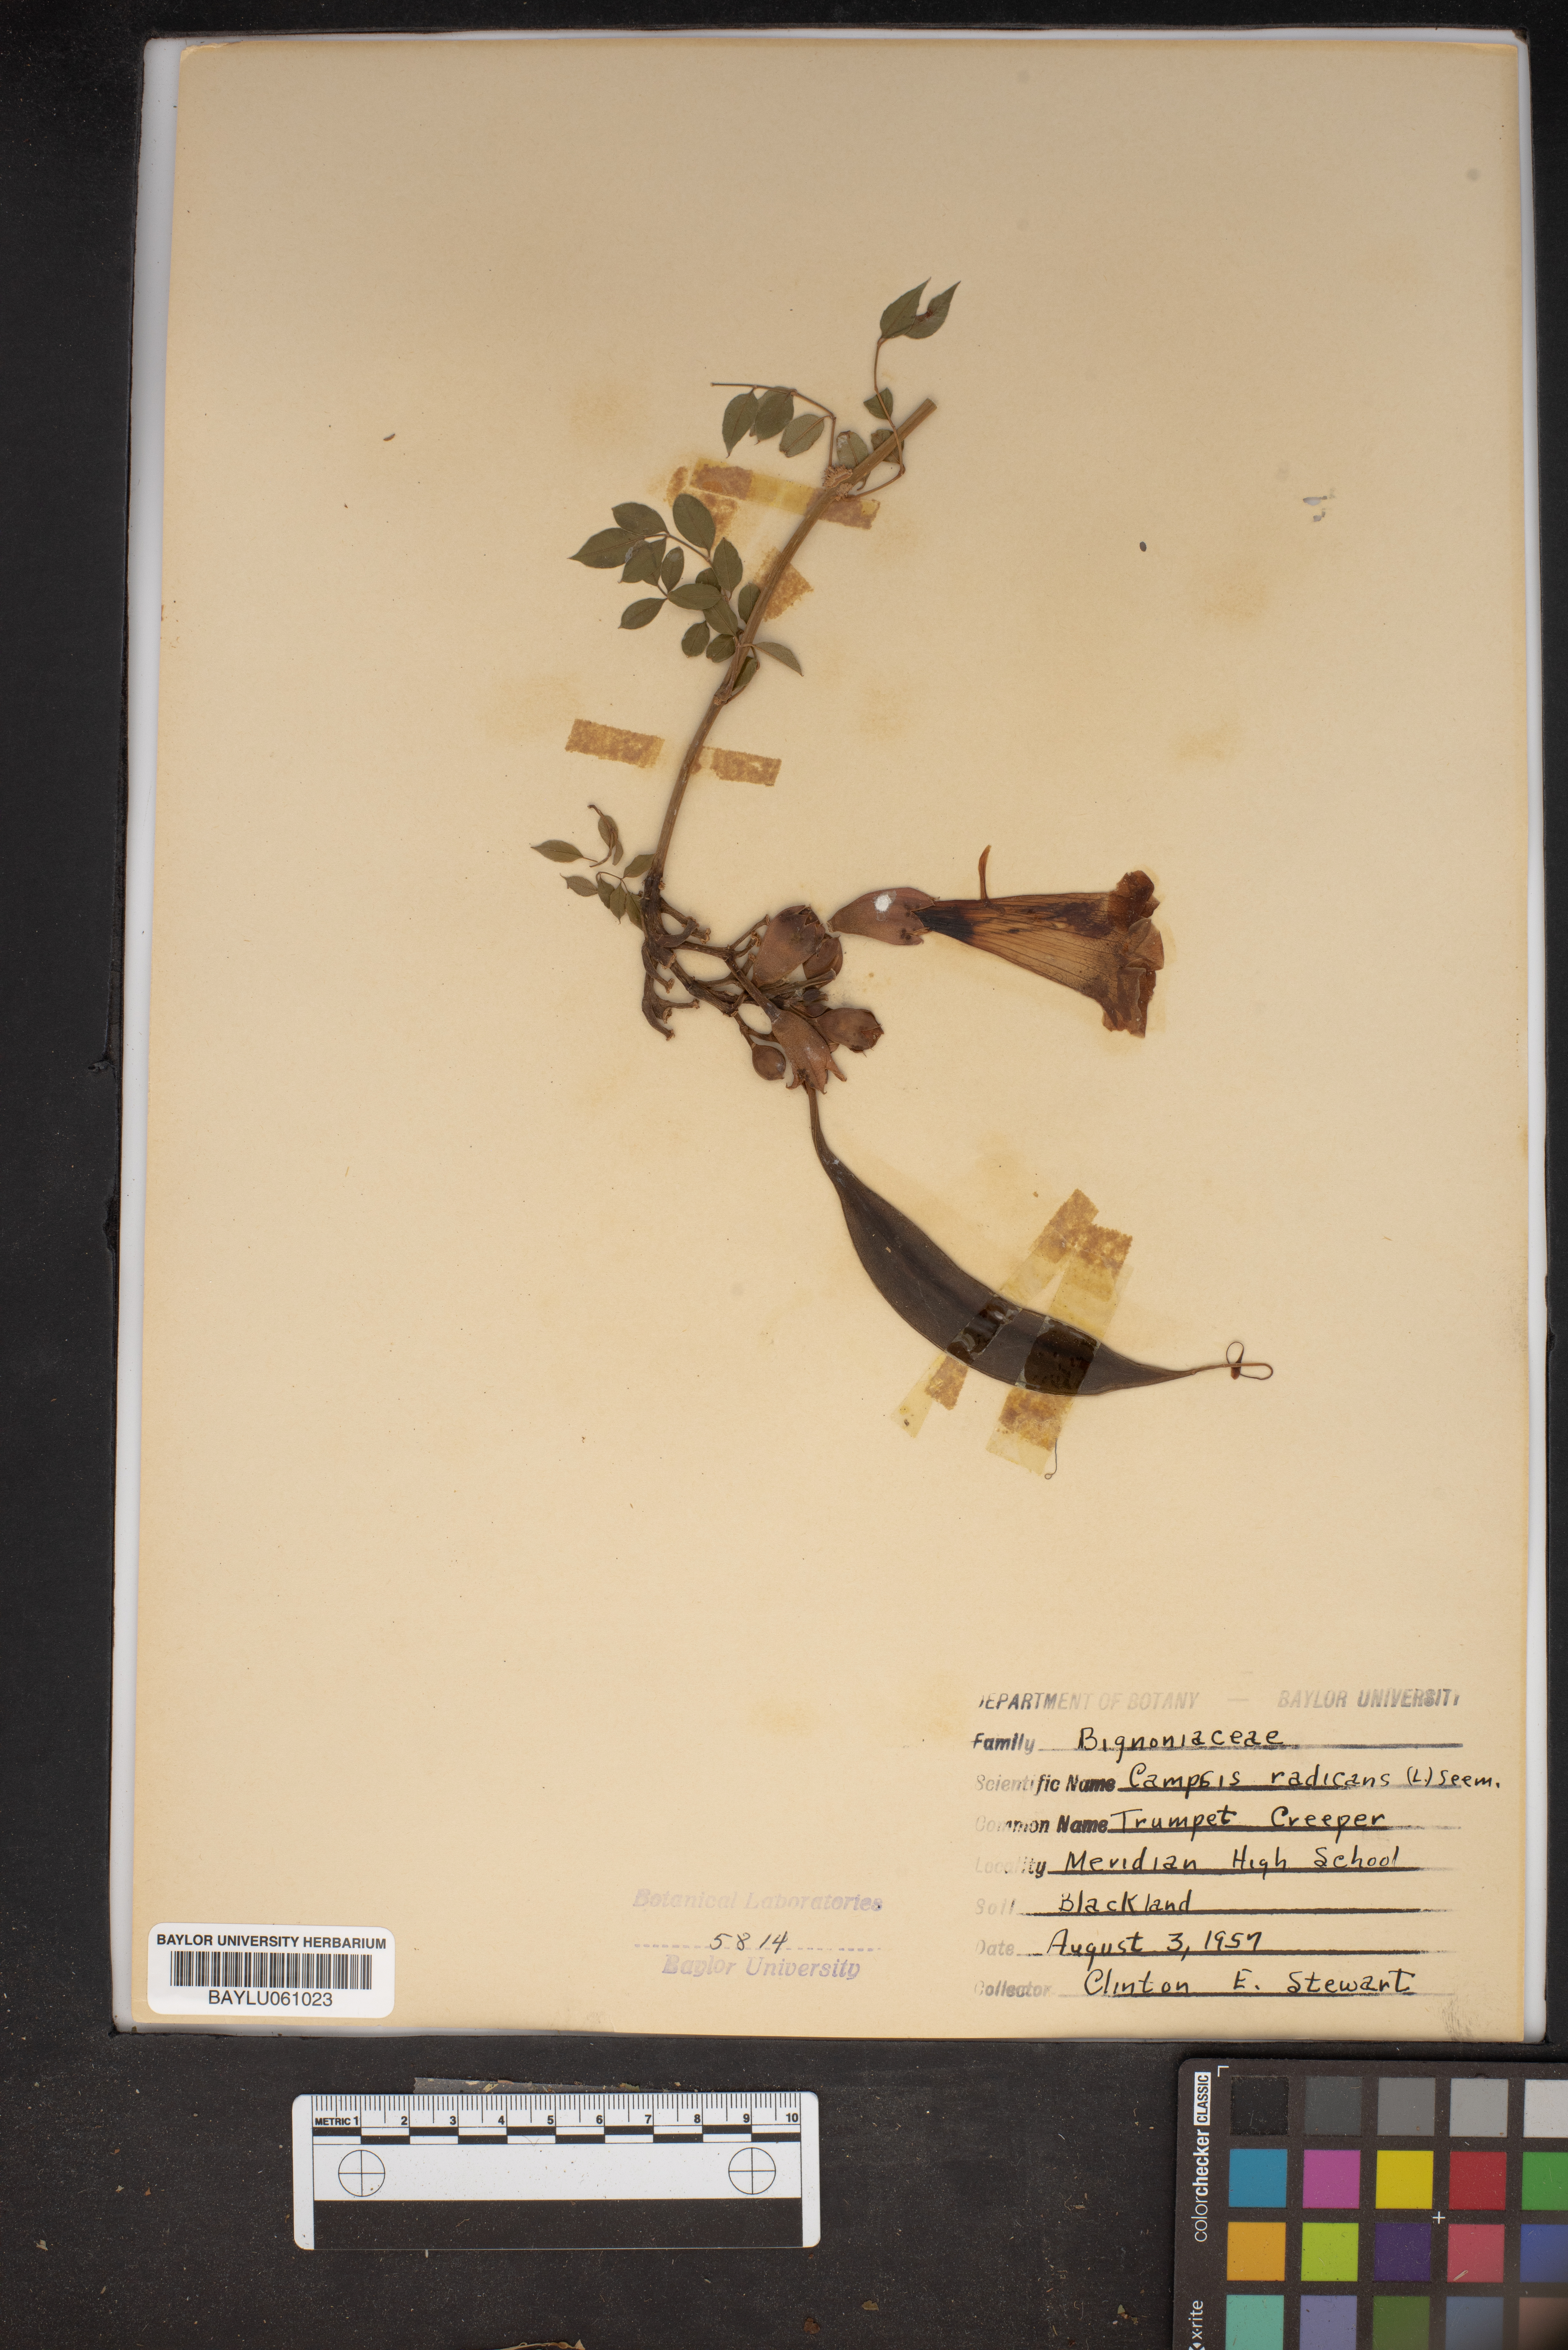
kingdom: Plantae
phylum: Tracheophyta
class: Magnoliopsida
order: Lamiales
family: Bignoniaceae
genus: Campsis
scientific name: Campsis radicans
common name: Trumpet-creeper
